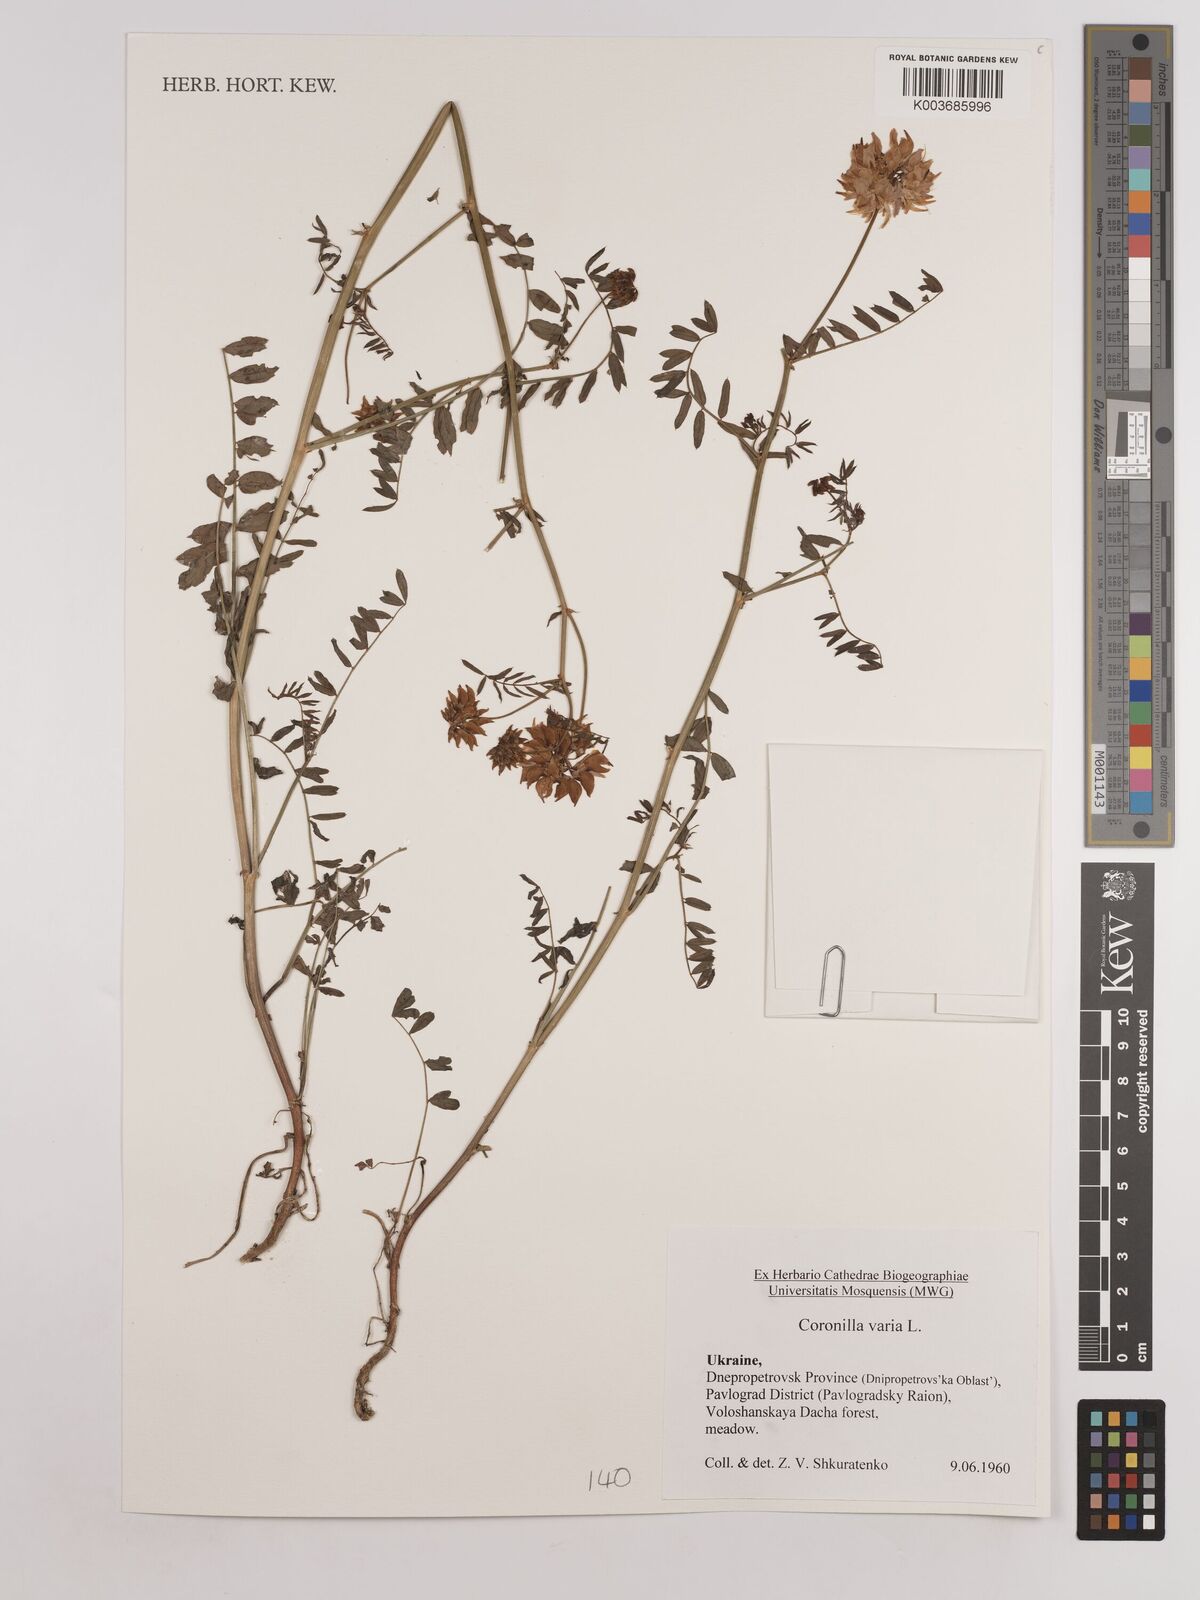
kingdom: Plantae
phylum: Tracheophyta
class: Magnoliopsida
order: Fabales
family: Fabaceae
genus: Coronilla
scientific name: Coronilla varia
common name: Crownvetch
